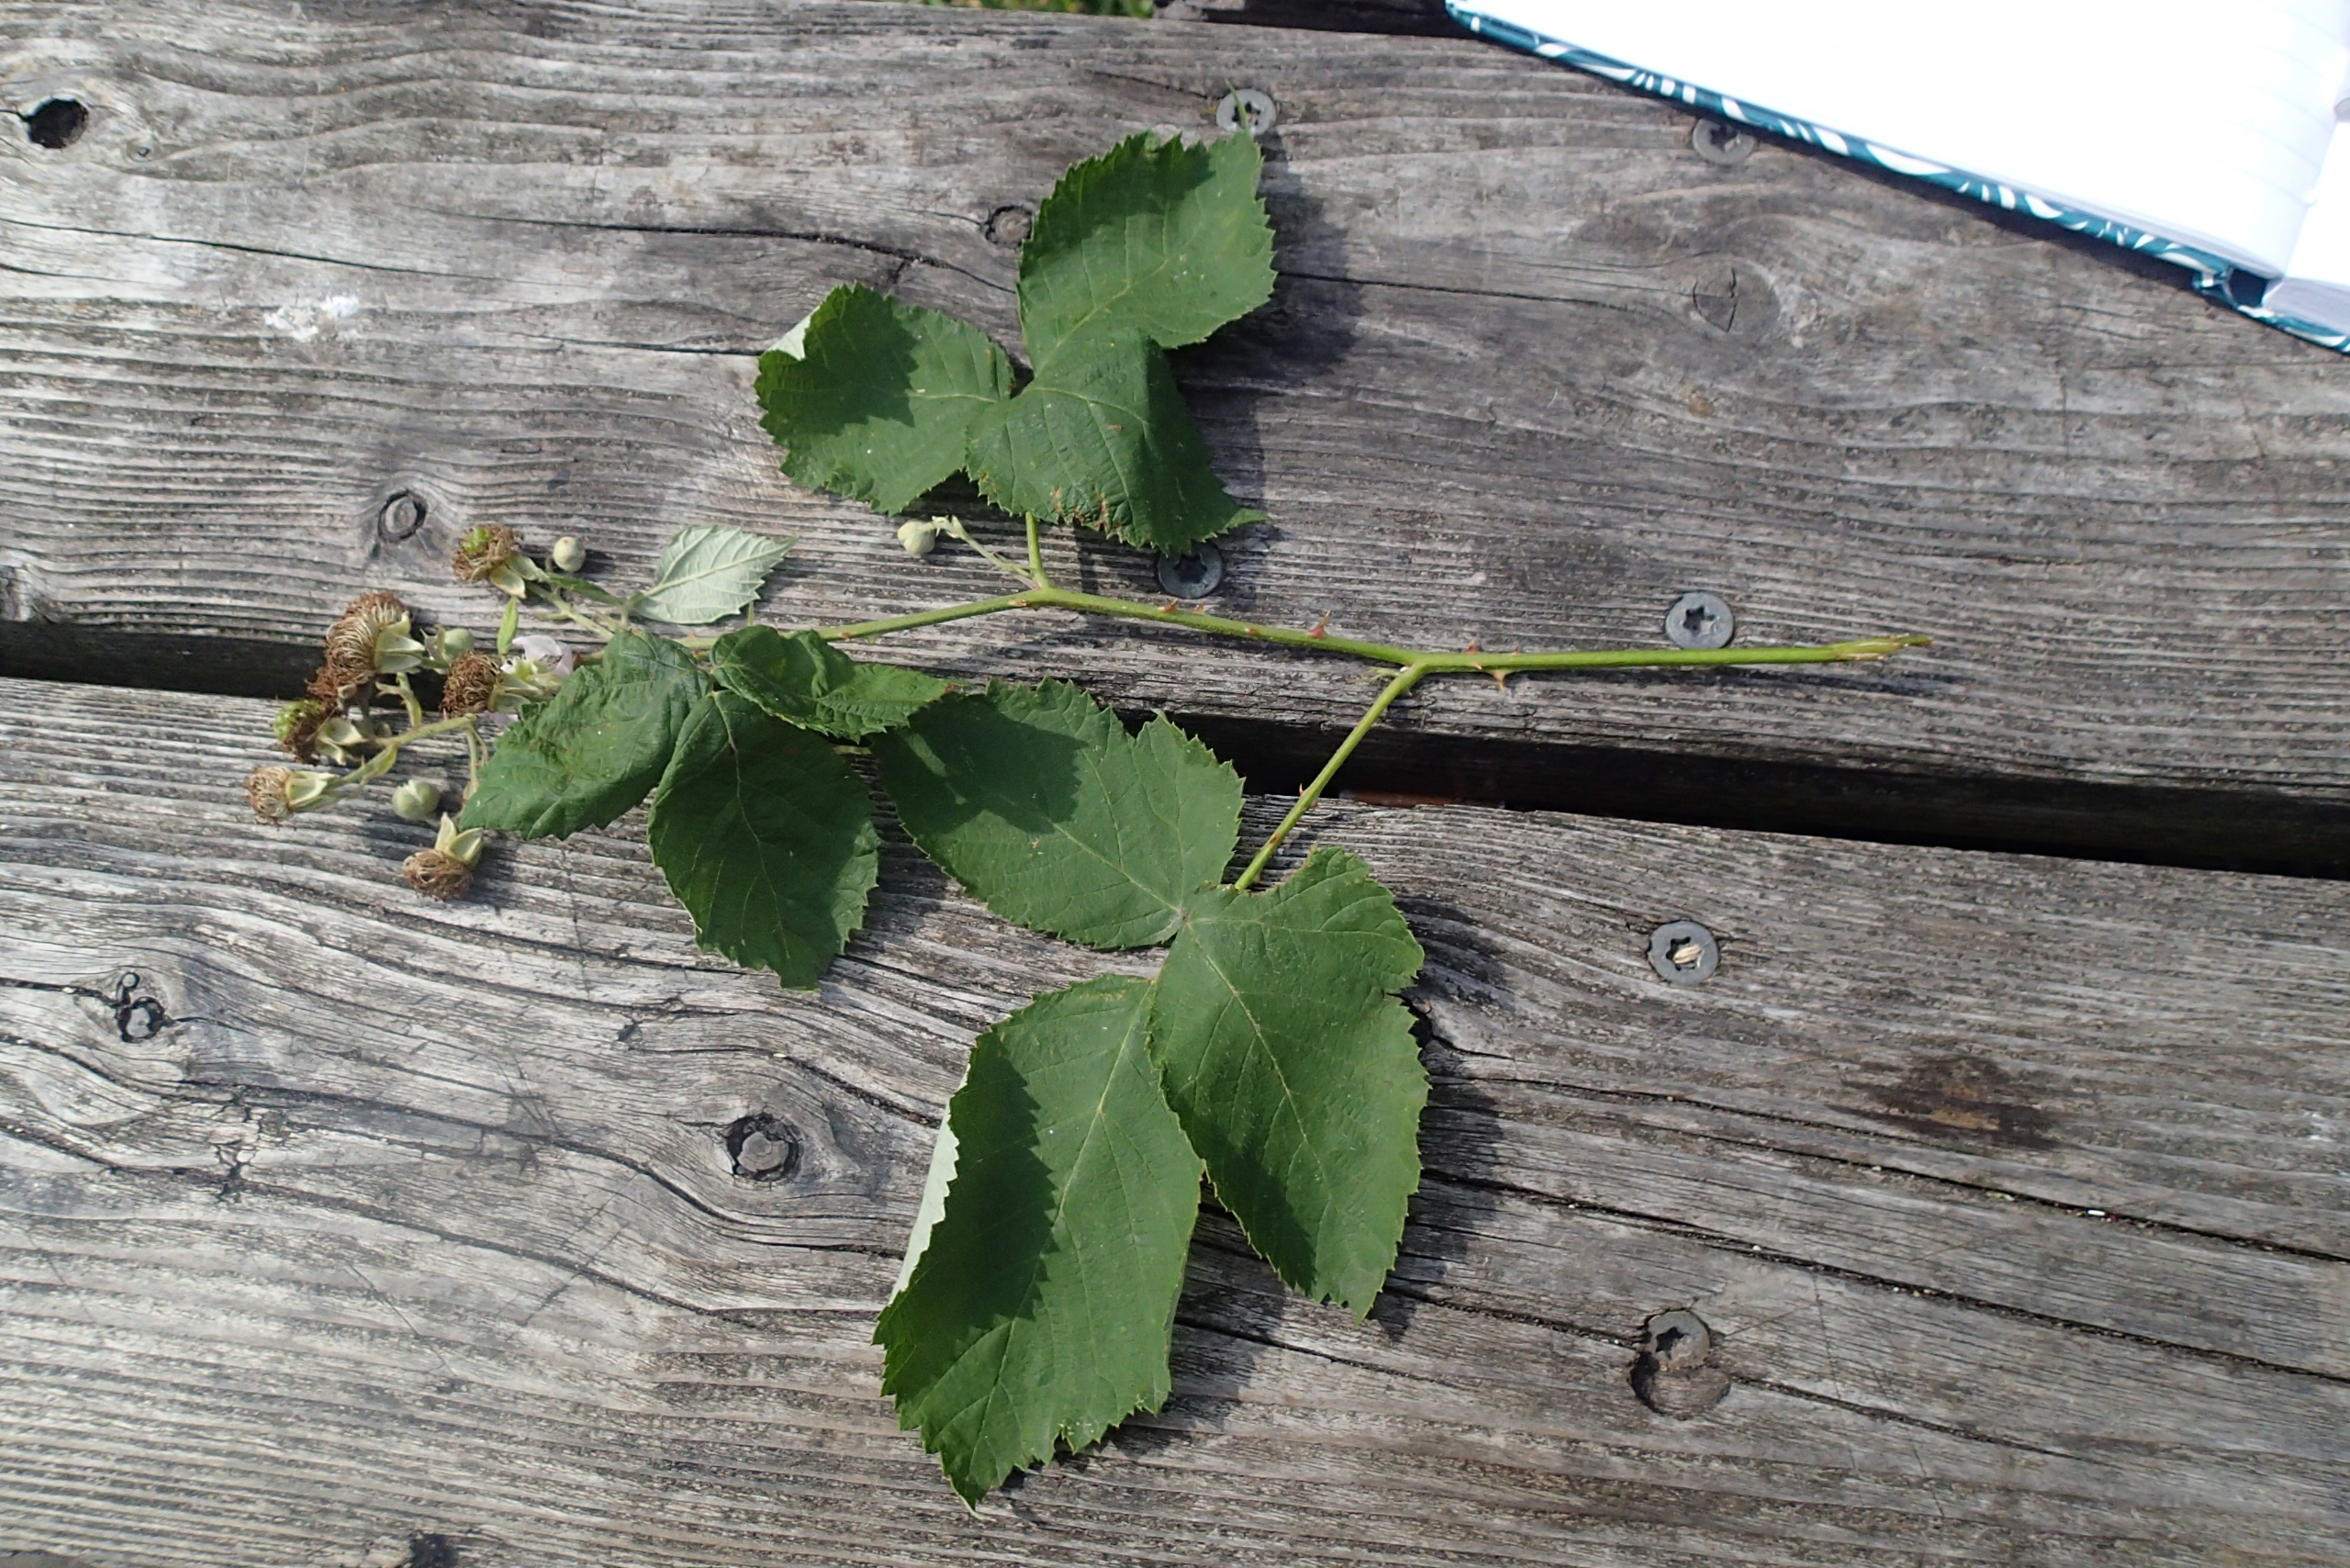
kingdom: Plantae
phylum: Tracheophyta
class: Magnoliopsida
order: Rosales
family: Rosaceae
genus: Rubus
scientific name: Rubus armeniacus
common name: Armensk brombær
